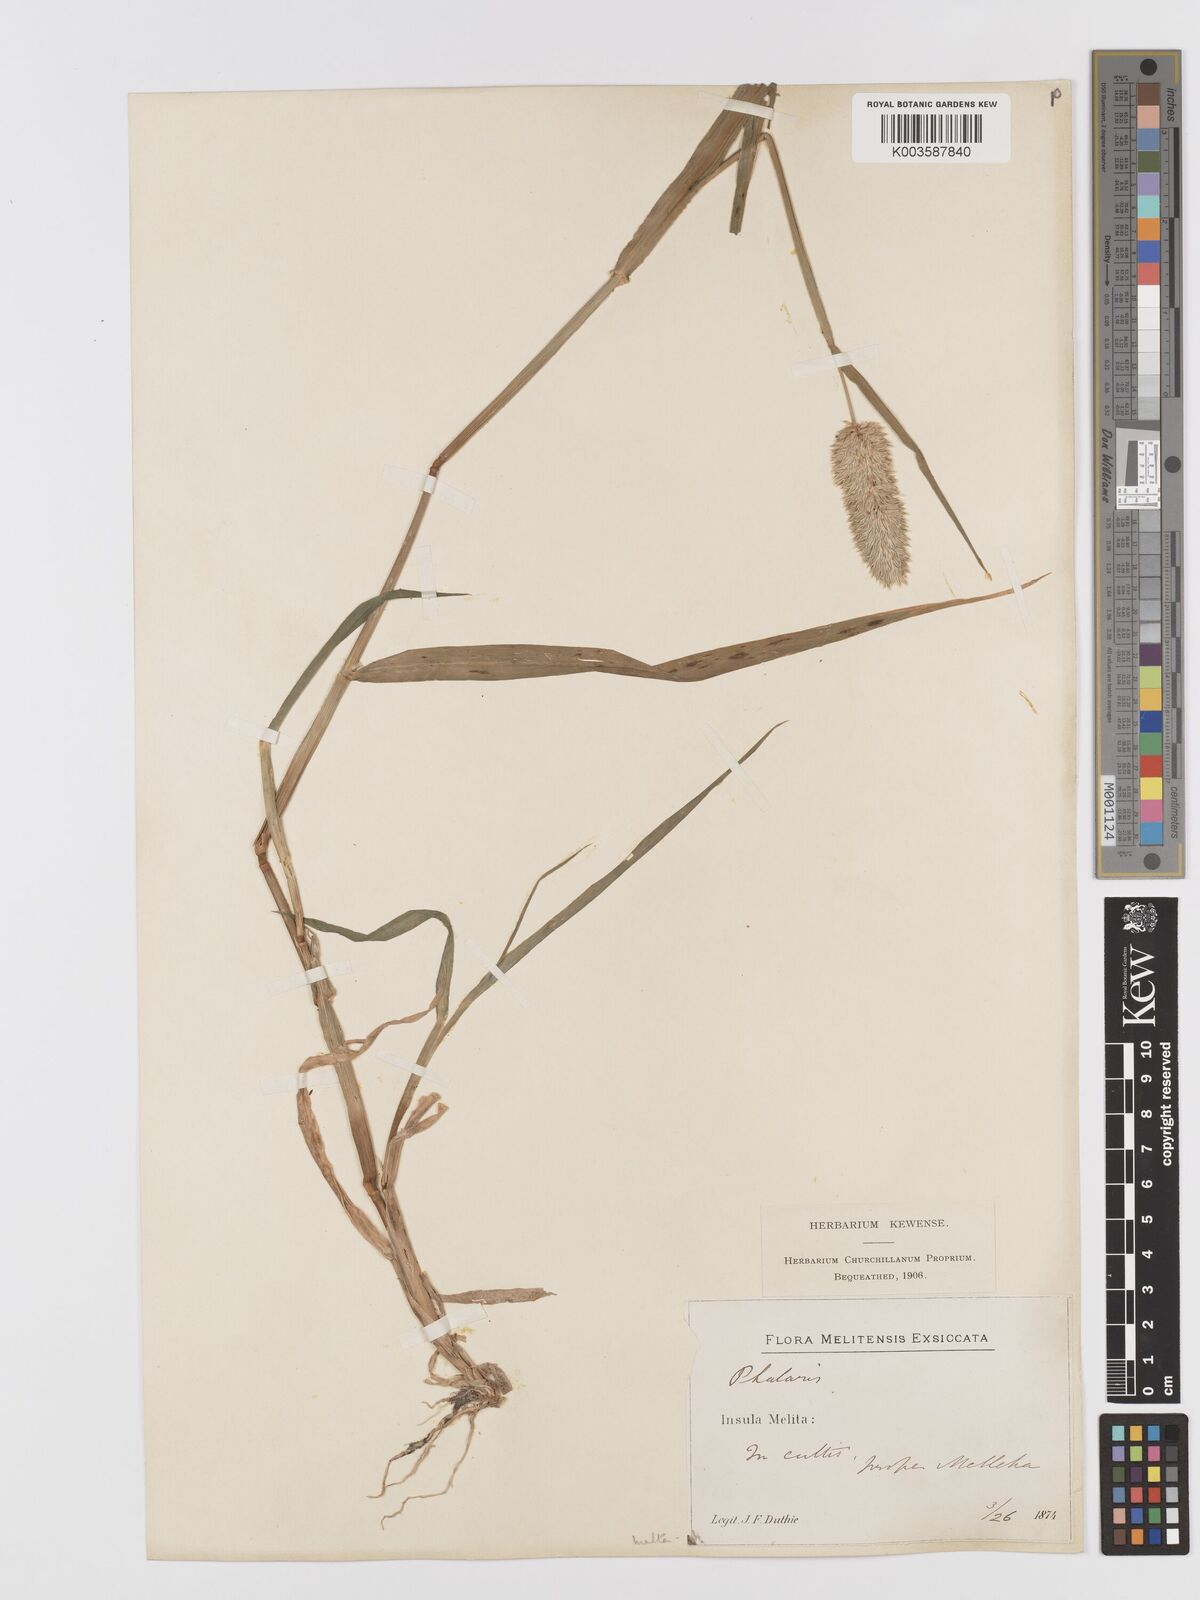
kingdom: Plantae
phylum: Tracheophyta
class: Liliopsida
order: Poales
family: Poaceae
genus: Phalaris
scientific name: Phalaris minor
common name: Littleseed canarygrass
